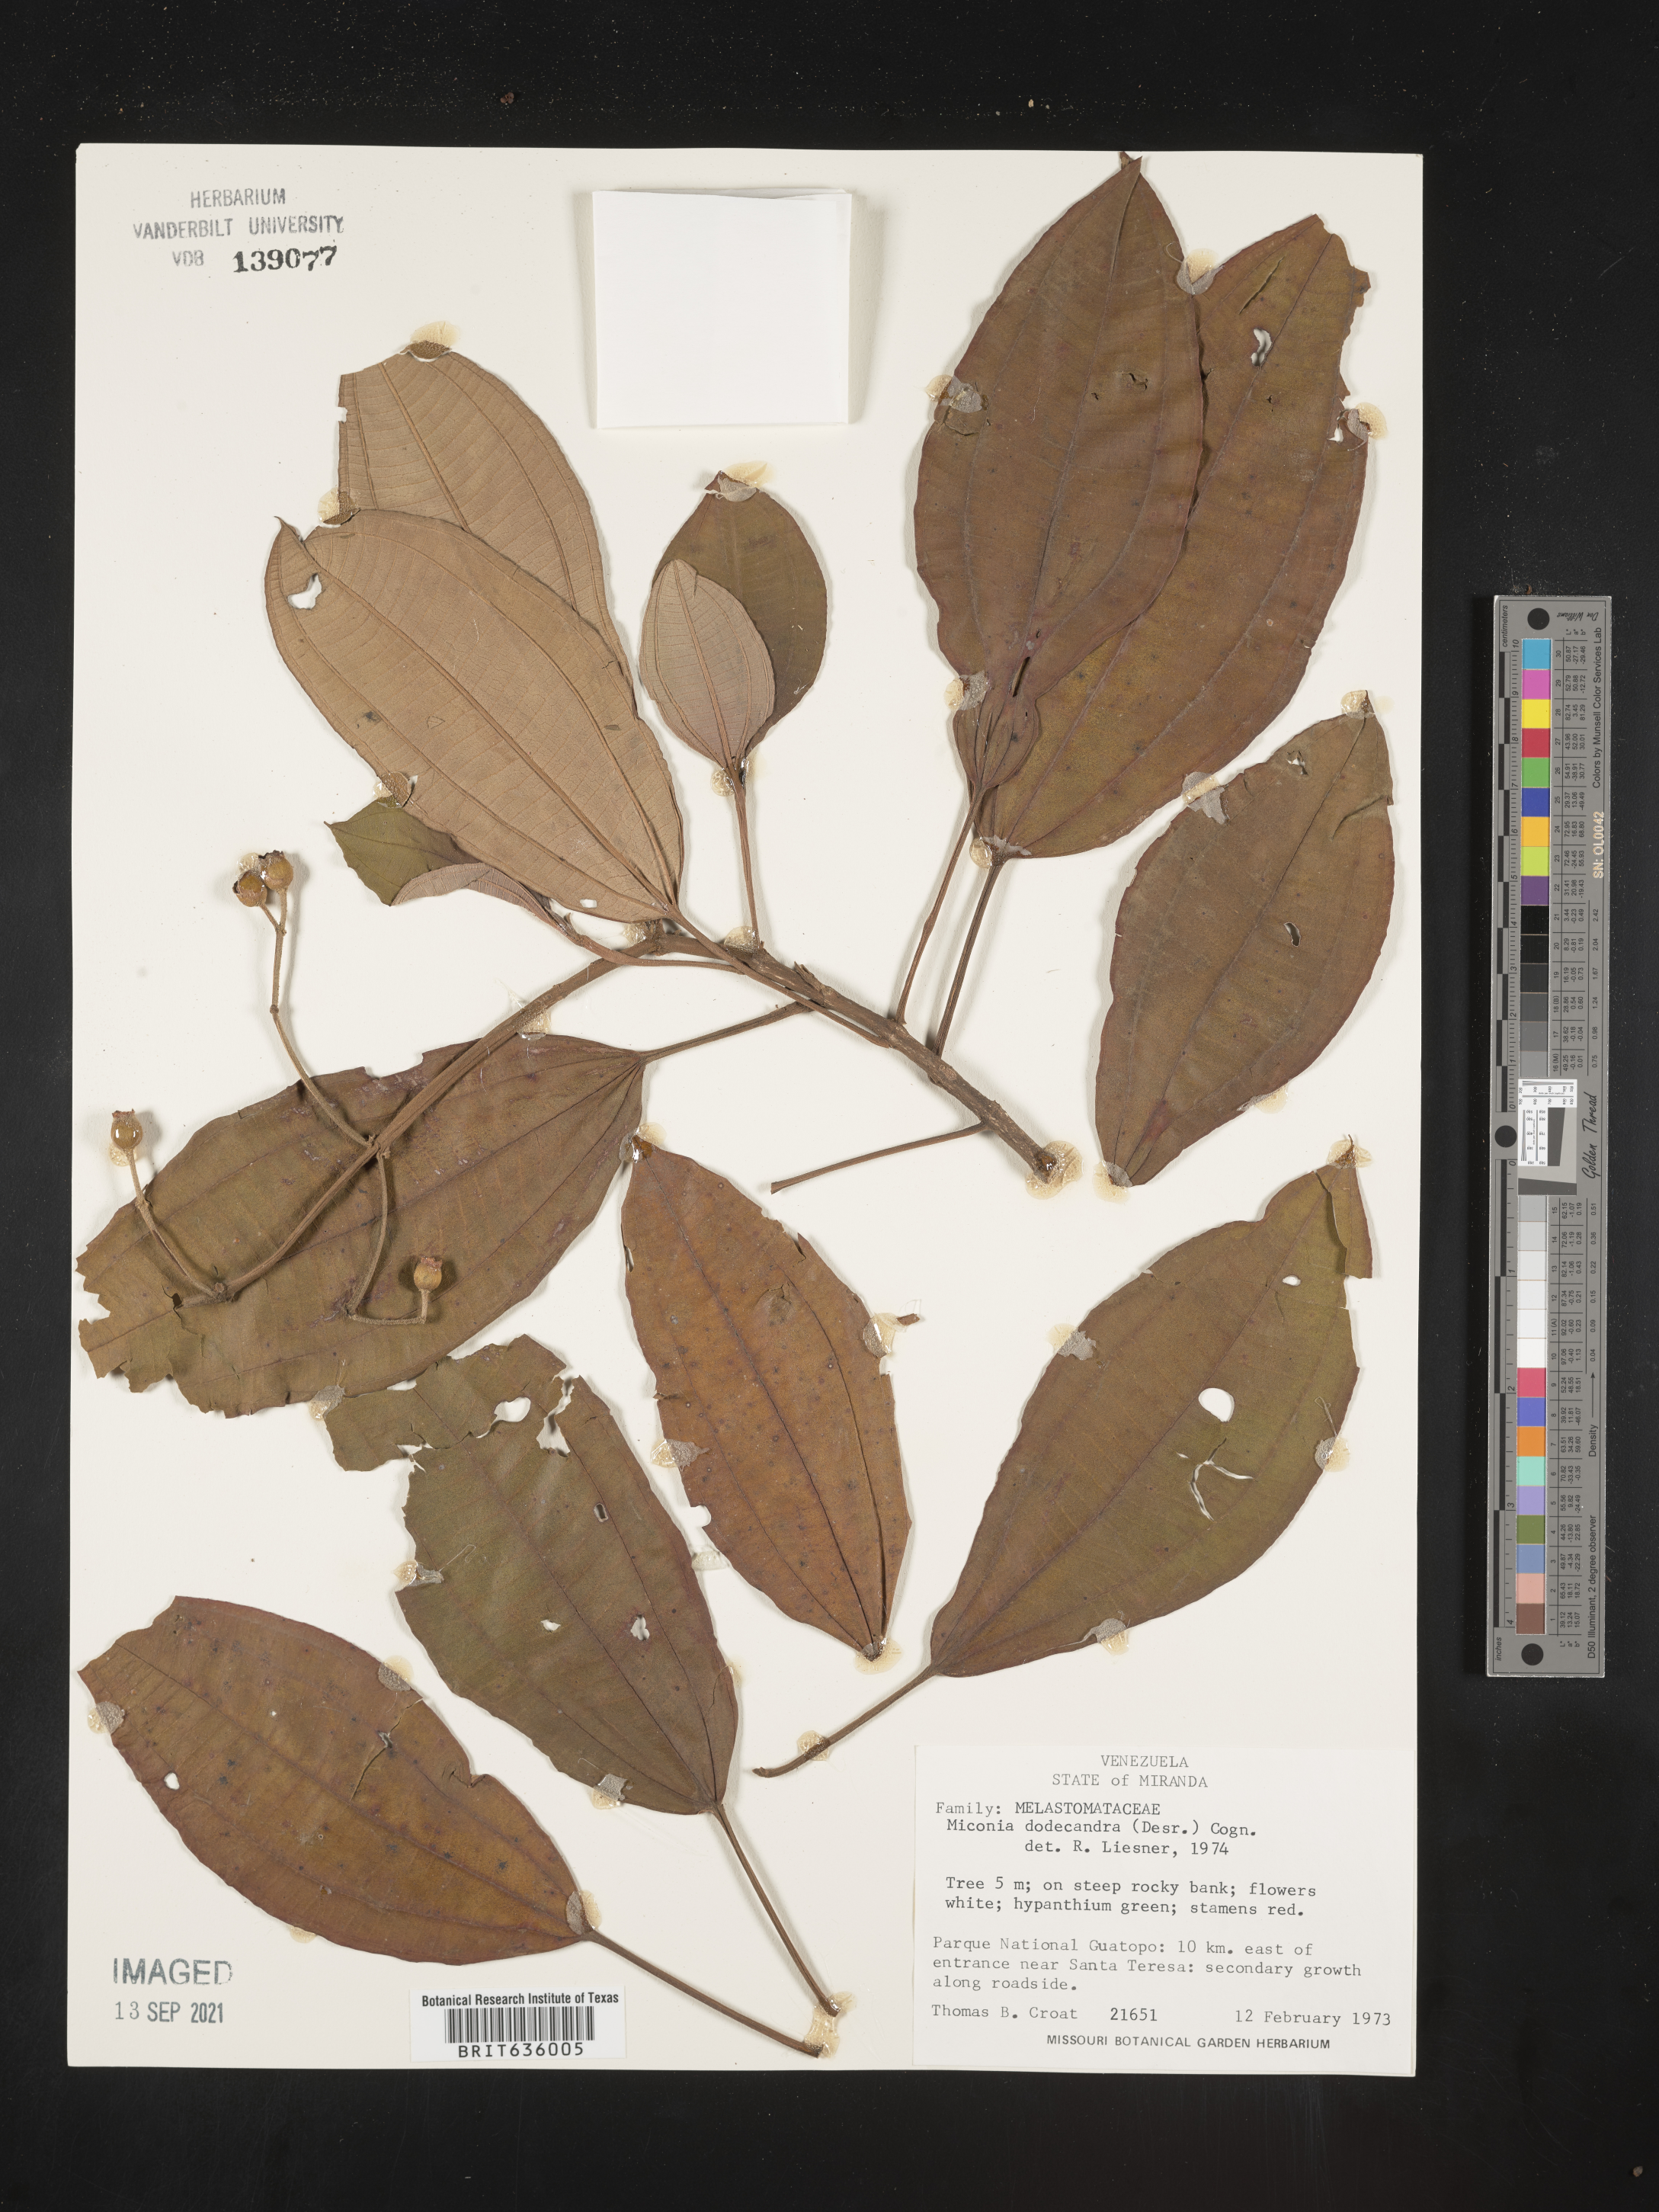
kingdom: Plantae
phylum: Tracheophyta
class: Magnoliopsida
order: Myrtales
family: Melastomataceae
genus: Miconia
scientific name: Miconia
